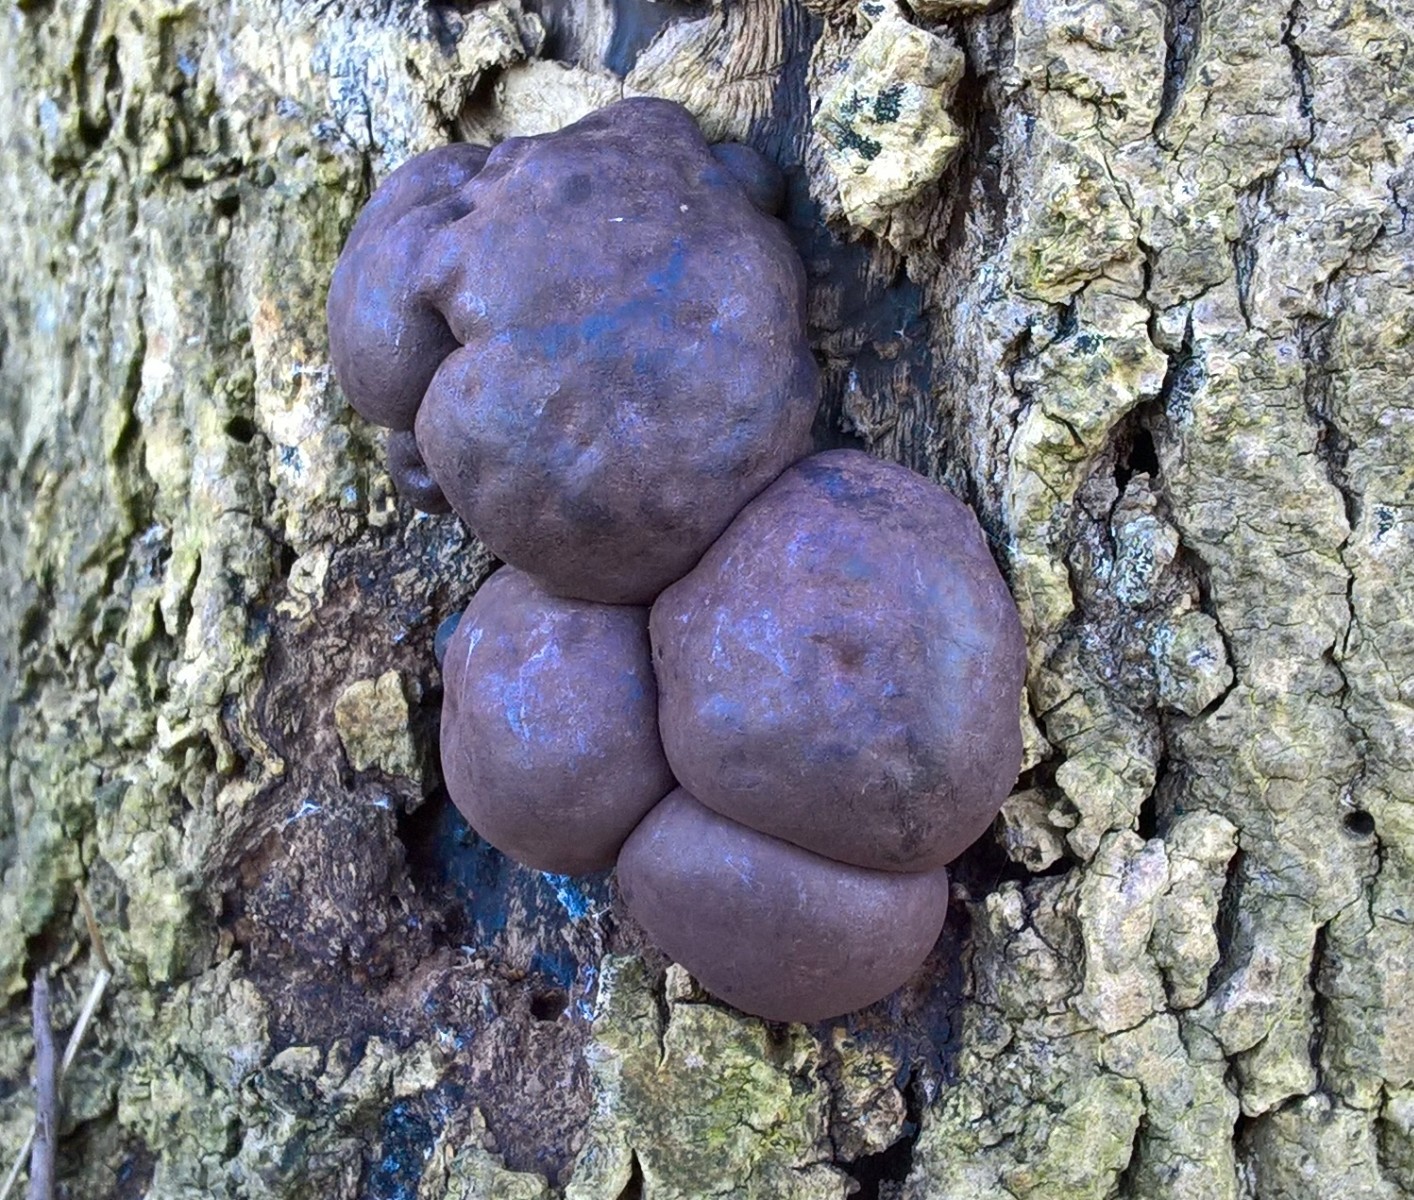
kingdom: Fungi
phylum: Ascomycota
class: Sordariomycetes
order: Xylariales
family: Hypoxylaceae
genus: Daldinia
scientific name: Daldinia concentrica
